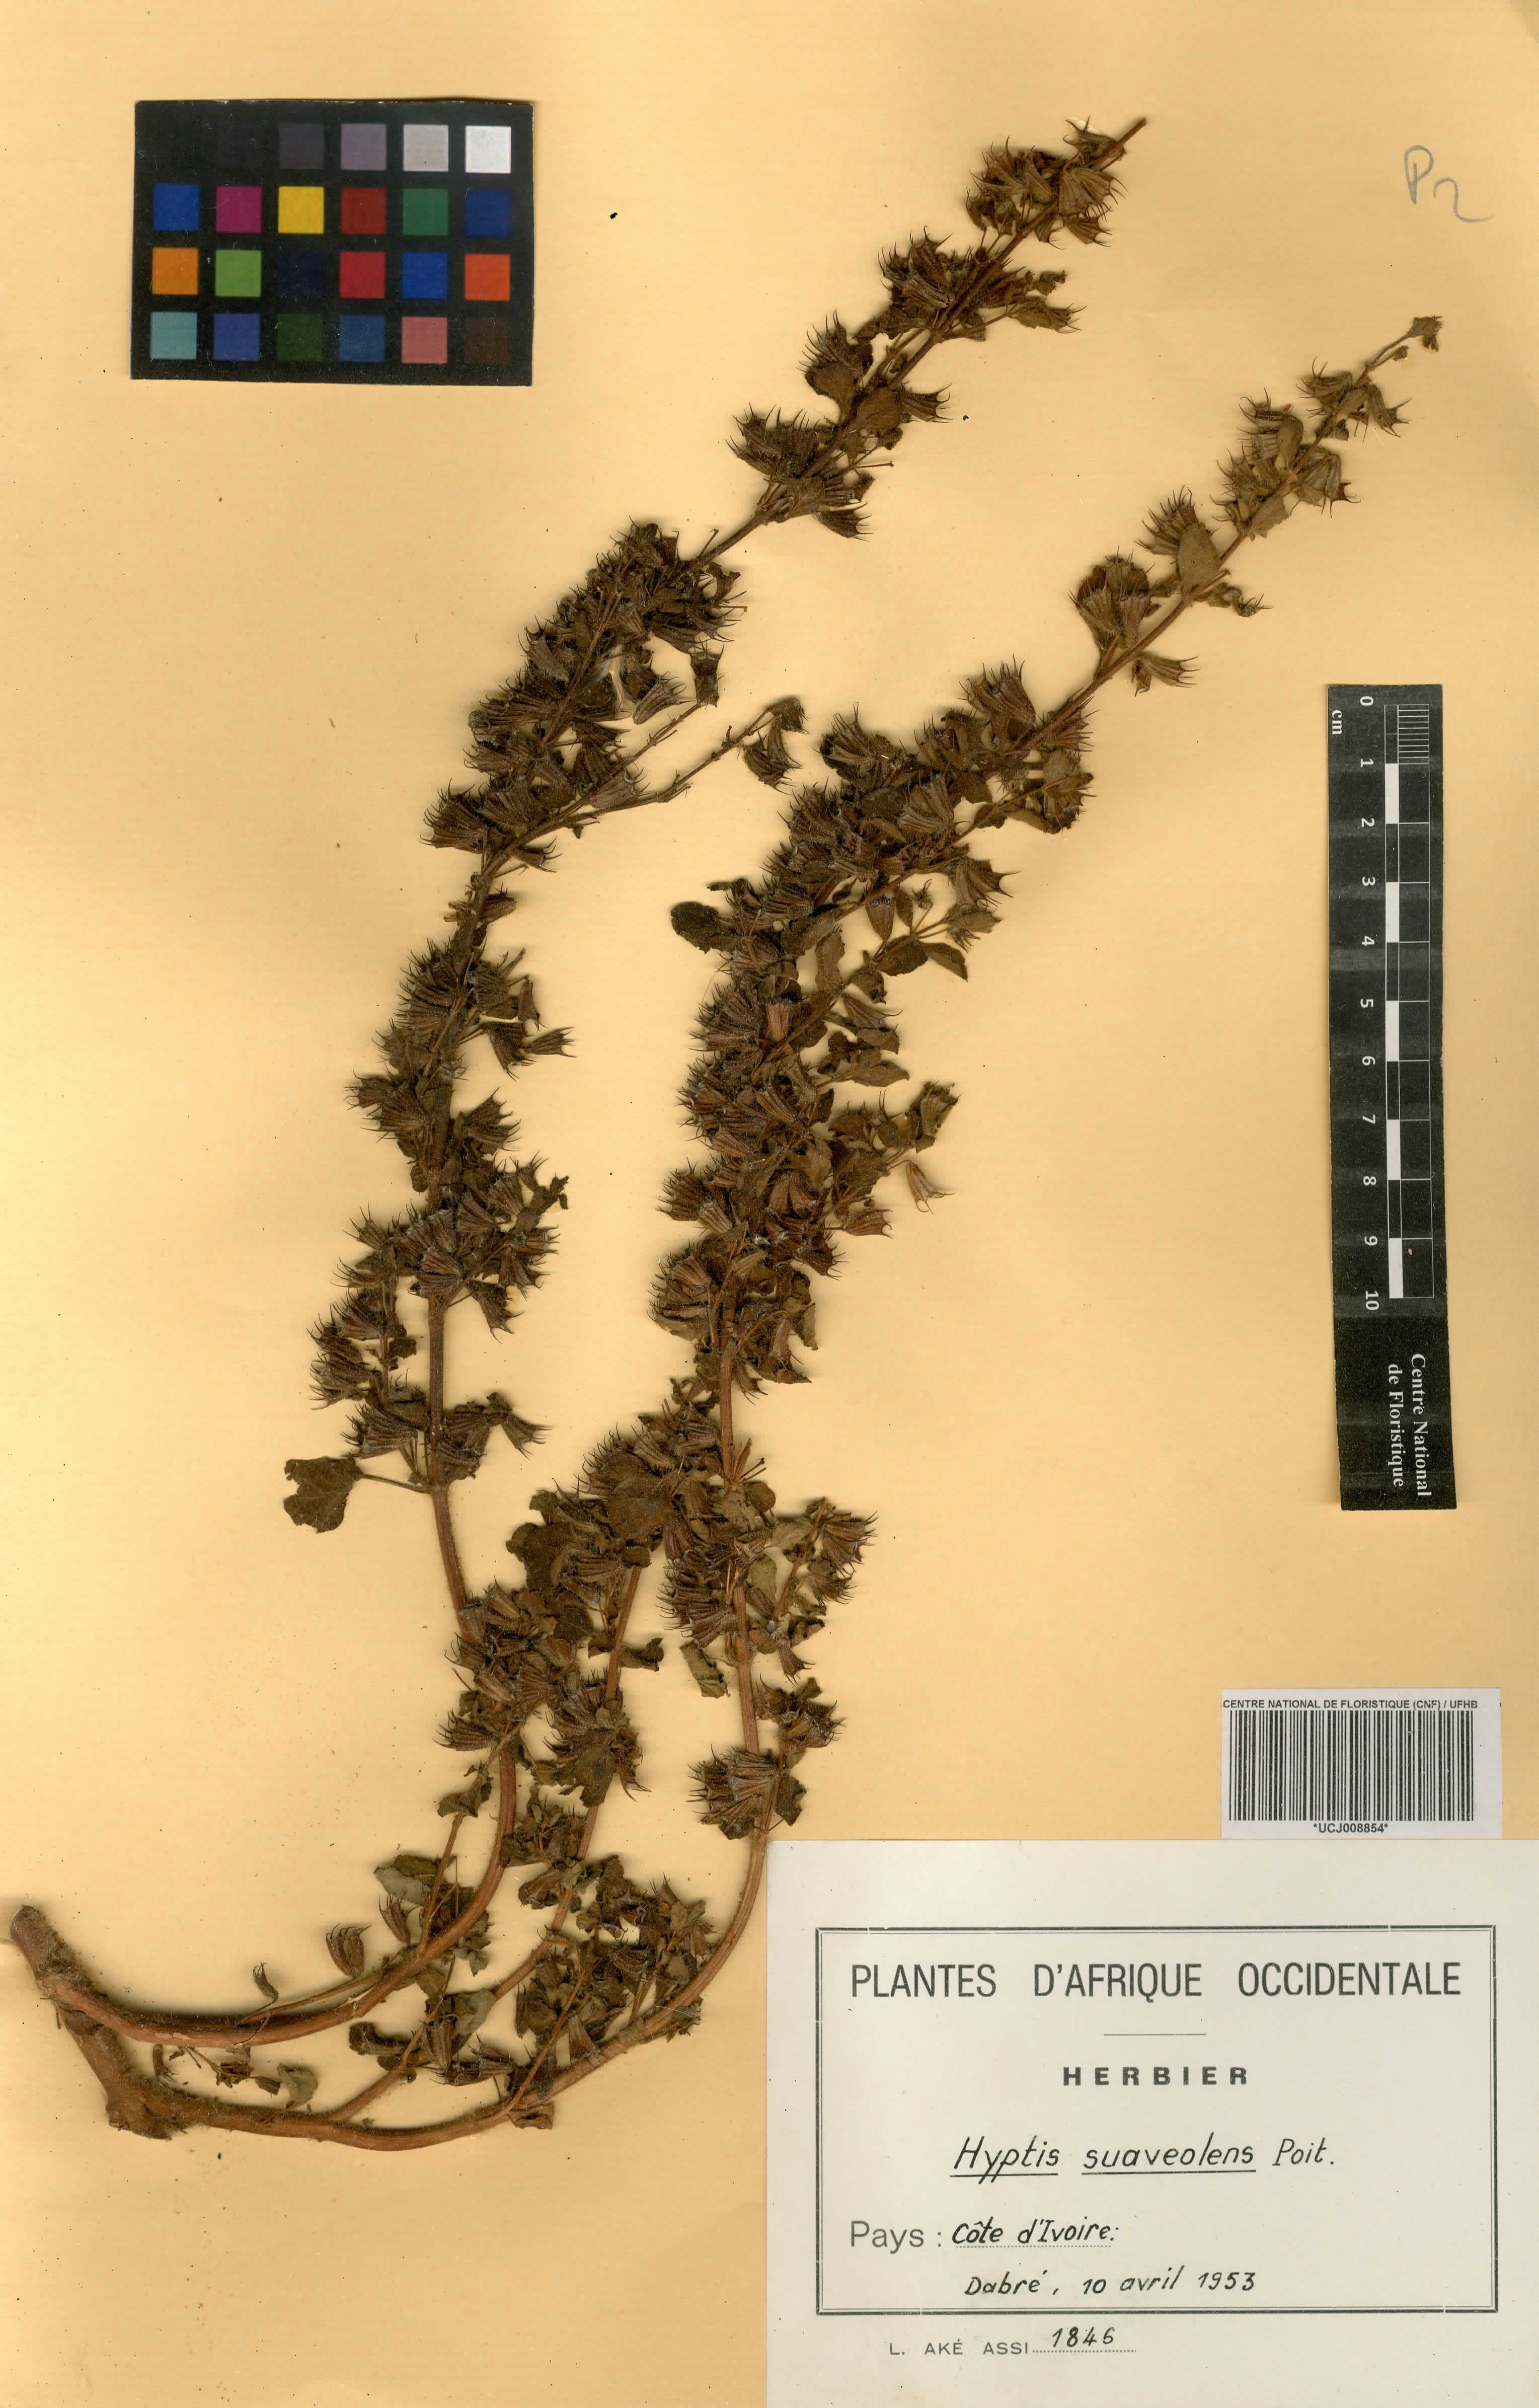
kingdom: Plantae
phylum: Tracheophyta
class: Magnoliopsida
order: Lamiales
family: Lamiaceae
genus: Mesosphaerum
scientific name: Mesosphaerum suaveolens
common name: Pignut
